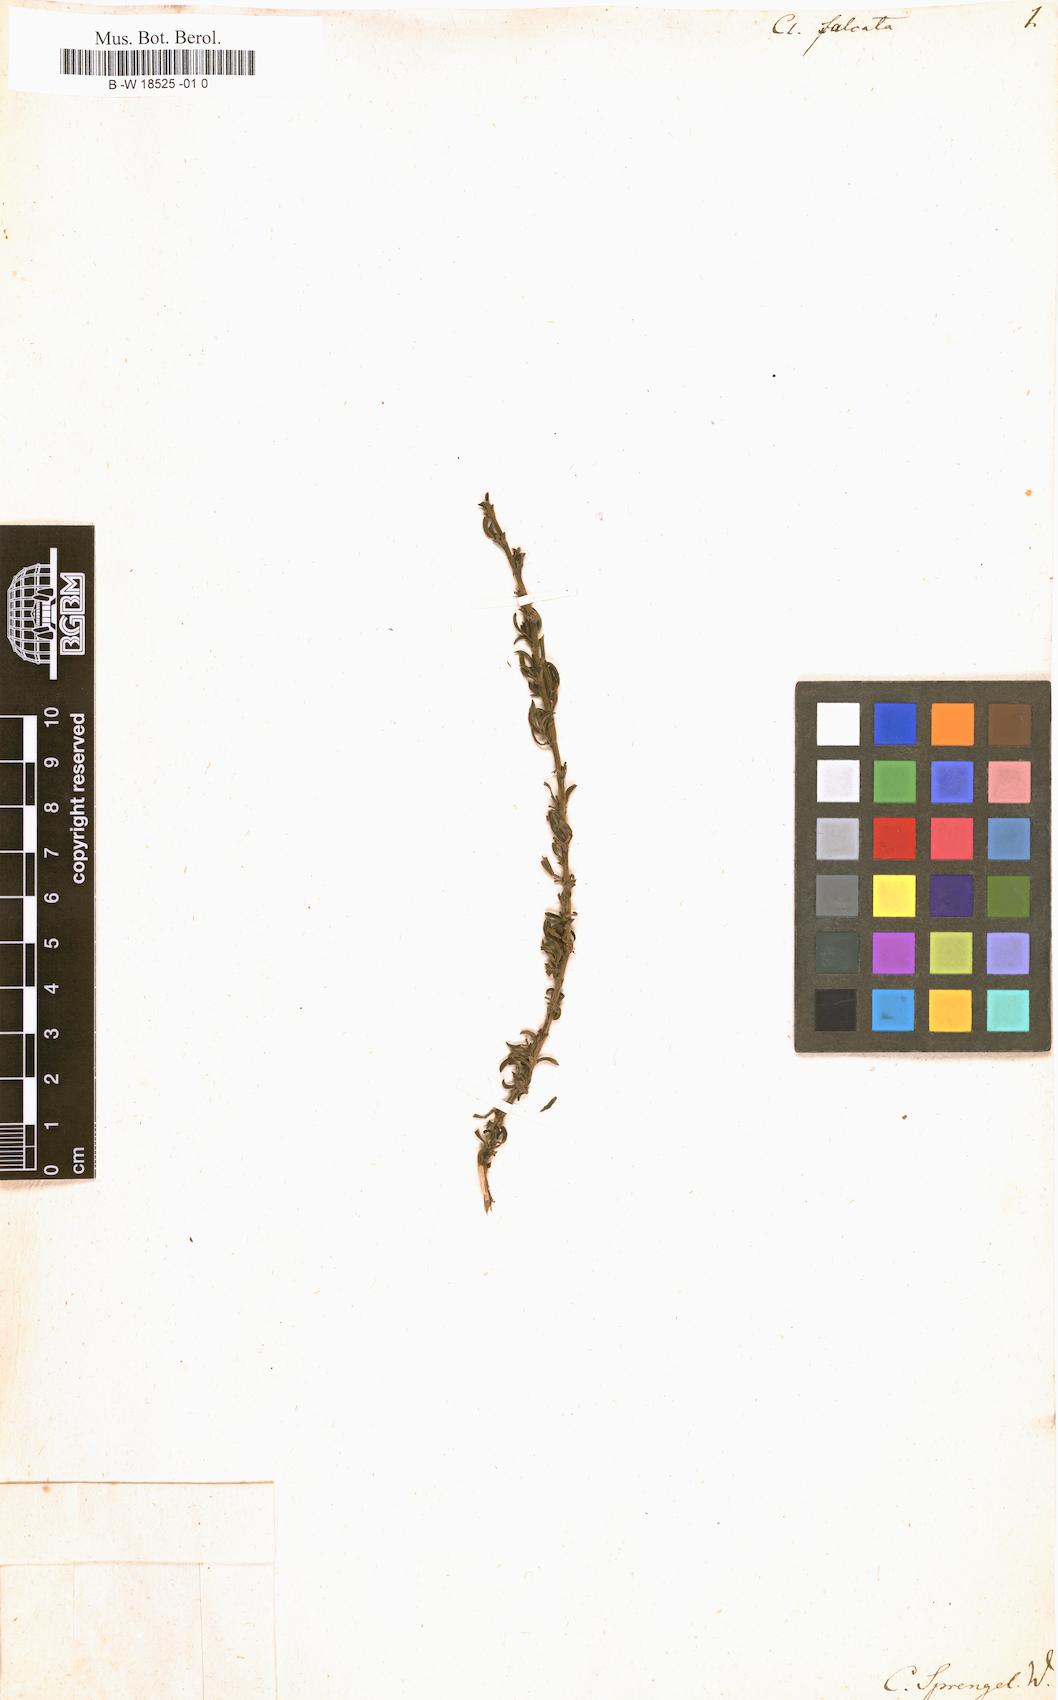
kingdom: Plantae
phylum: Tracheophyta
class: Magnoliopsida
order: Rosales
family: Rosaceae
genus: Cliffortia
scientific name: Cliffortia falcata
